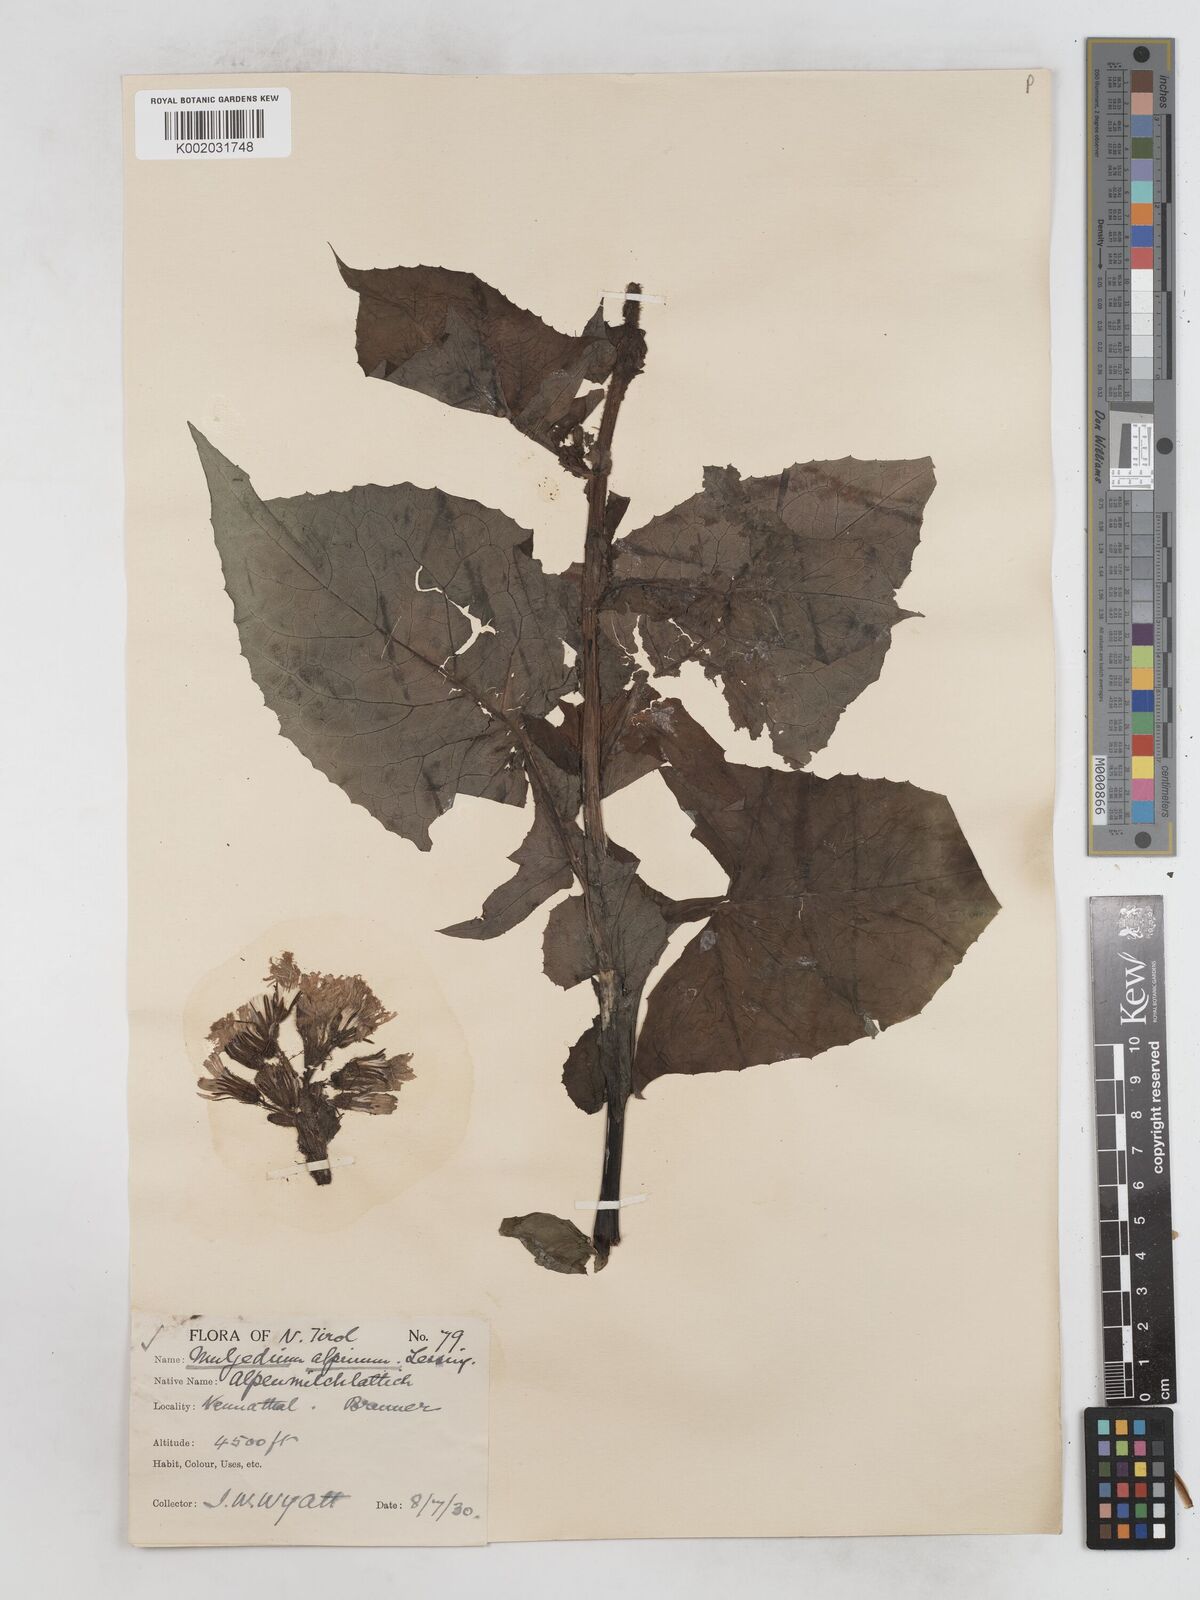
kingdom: Plantae
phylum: Tracheophyta
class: Magnoliopsida
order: Asterales
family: Asteraceae
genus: Cicerbita
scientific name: Cicerbita alpina
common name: Alpine blue-sow-thistle
